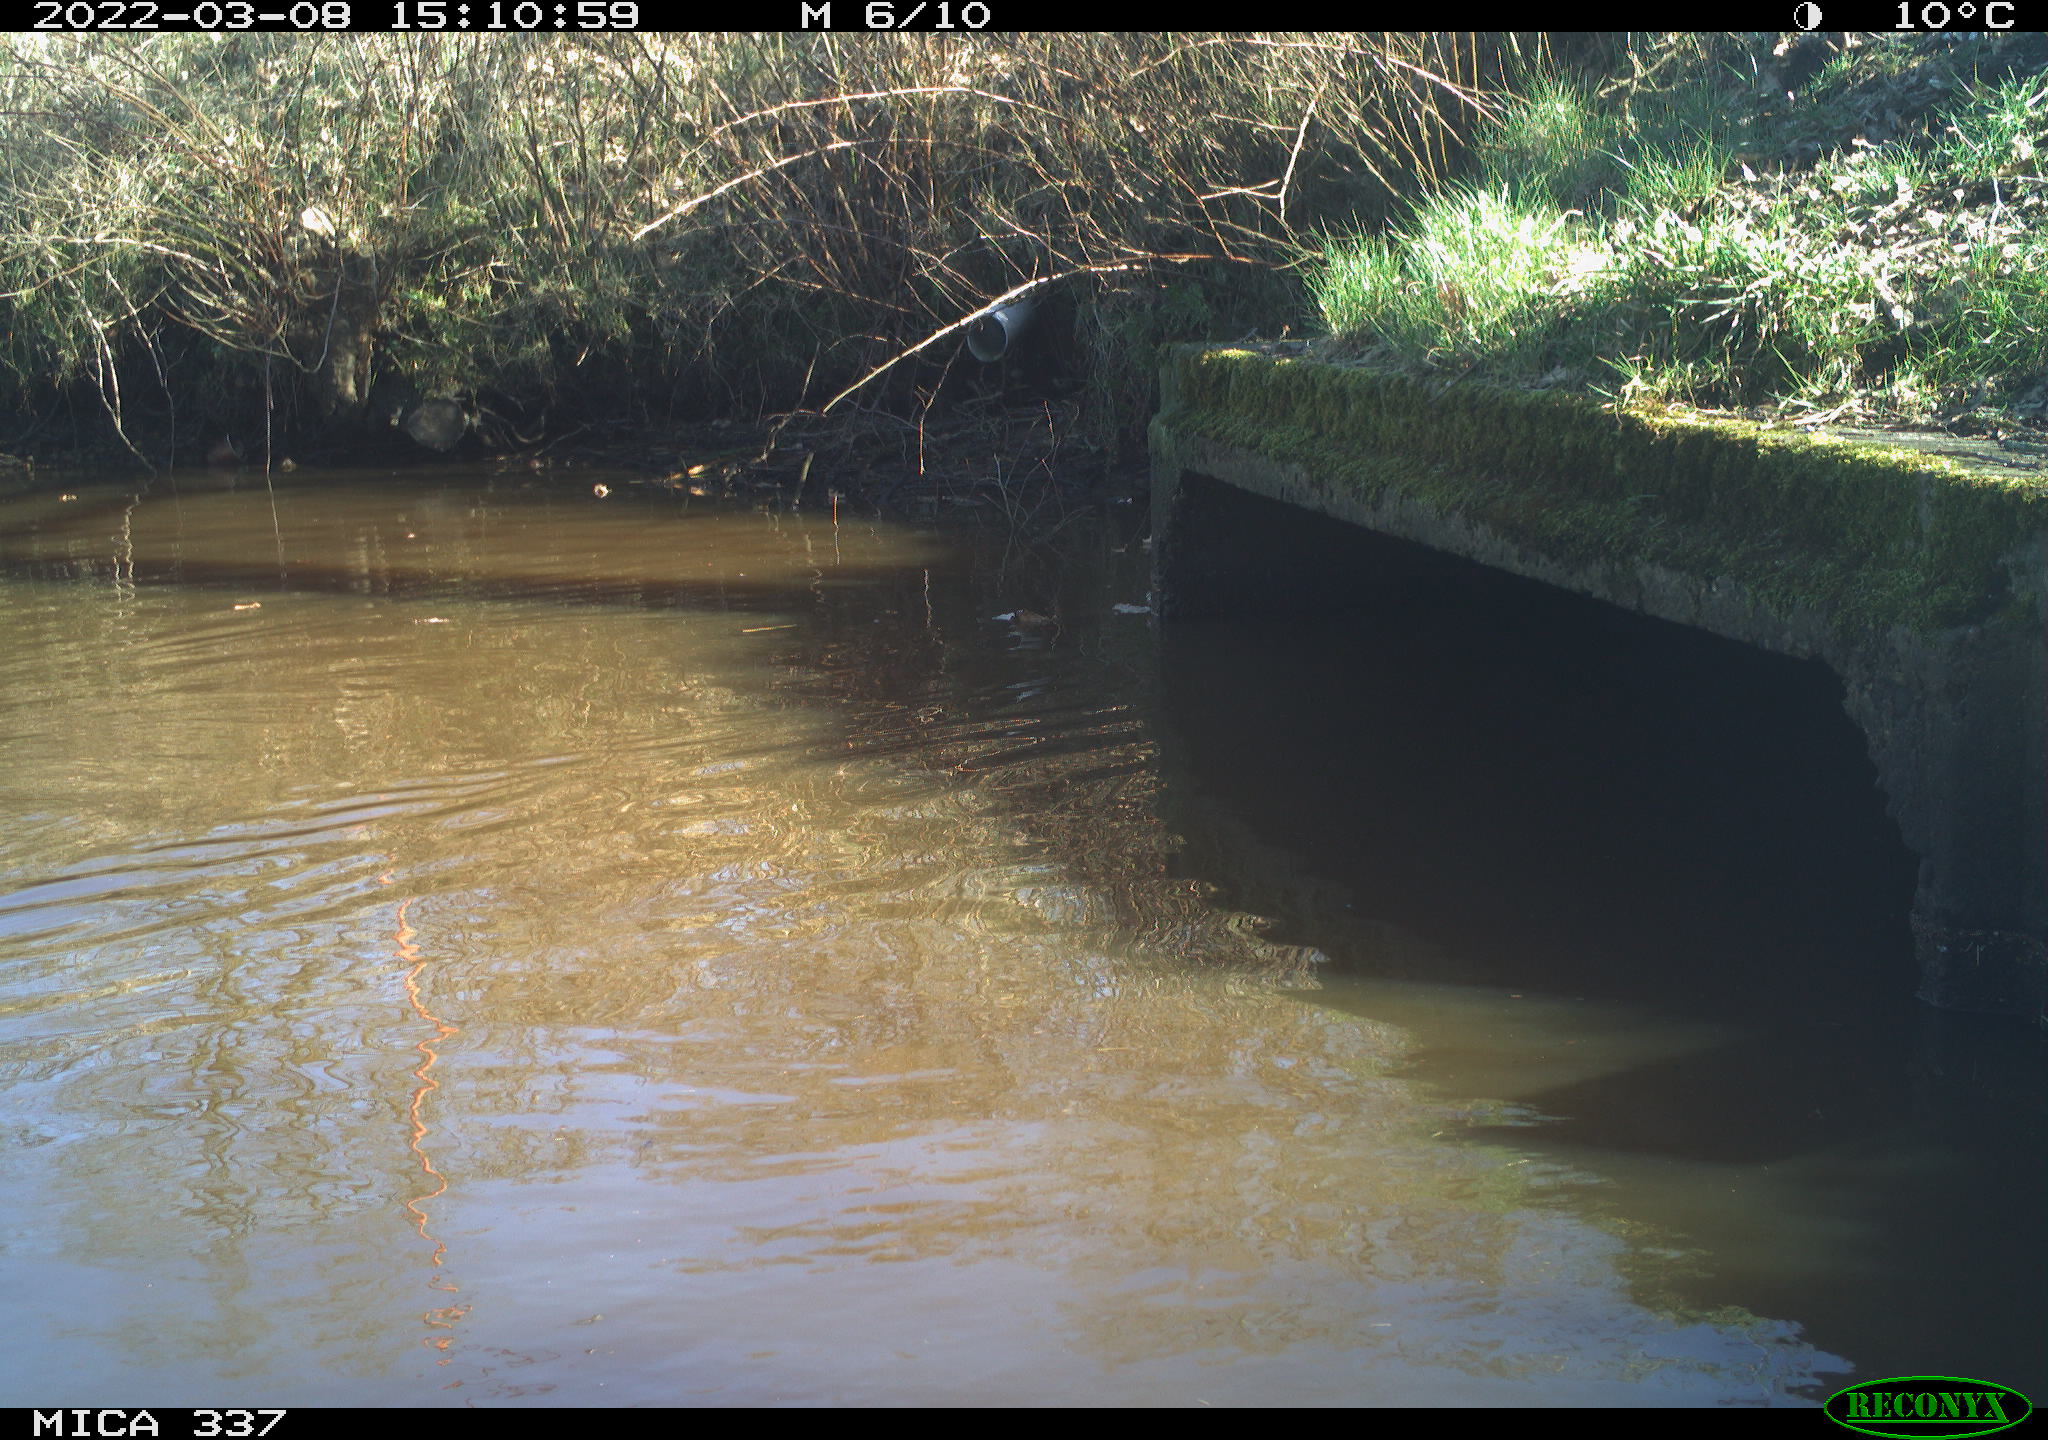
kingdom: Animalia
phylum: Chordata
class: Aves
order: Anseriformes
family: Anatidae
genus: Anas
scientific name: Anas platyrhynchos
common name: Mallard
